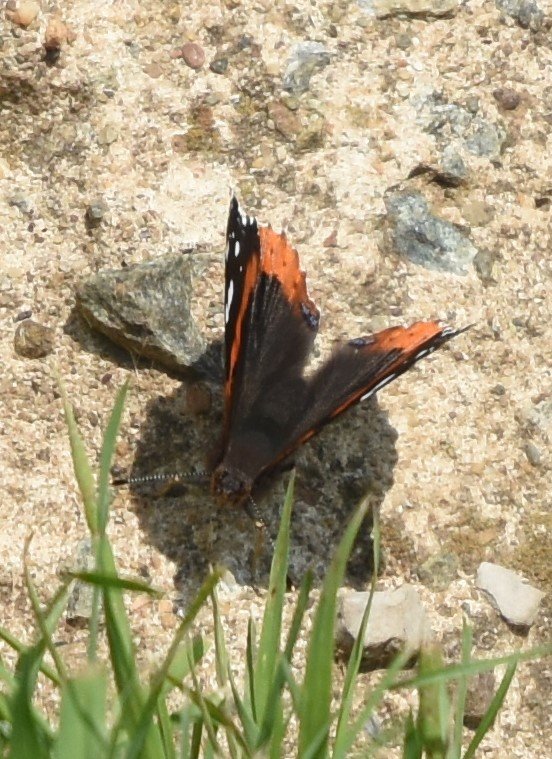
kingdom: Animalia
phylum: Arthropoda
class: Insecta
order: Lepidoptera
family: Nymphalidae
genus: Vanessa
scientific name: Vanessa atalanta
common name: Red Admiral
